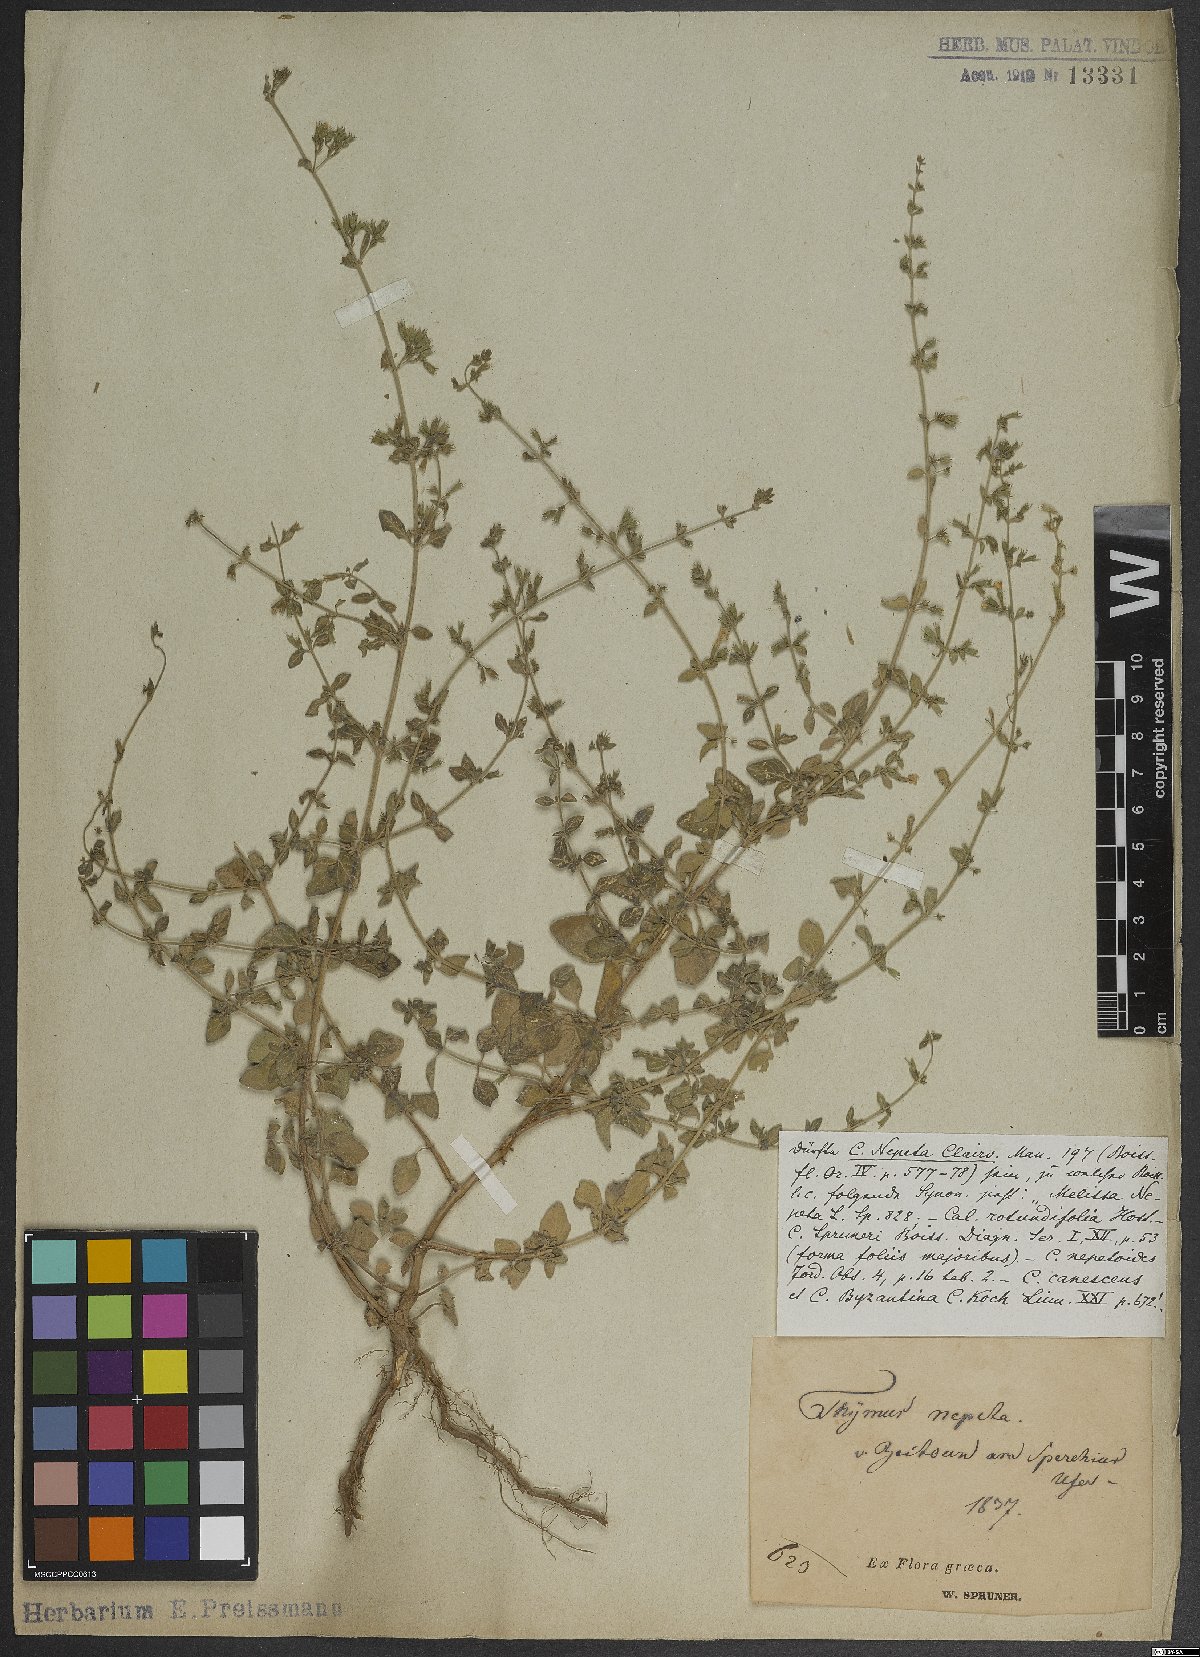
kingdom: Plantae
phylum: Tracheophyta
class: Magnoliopsida
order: Lamiales
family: Lamiaceae
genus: Clinopodium
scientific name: Clinopodium nepeta
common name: Lesser calamint
